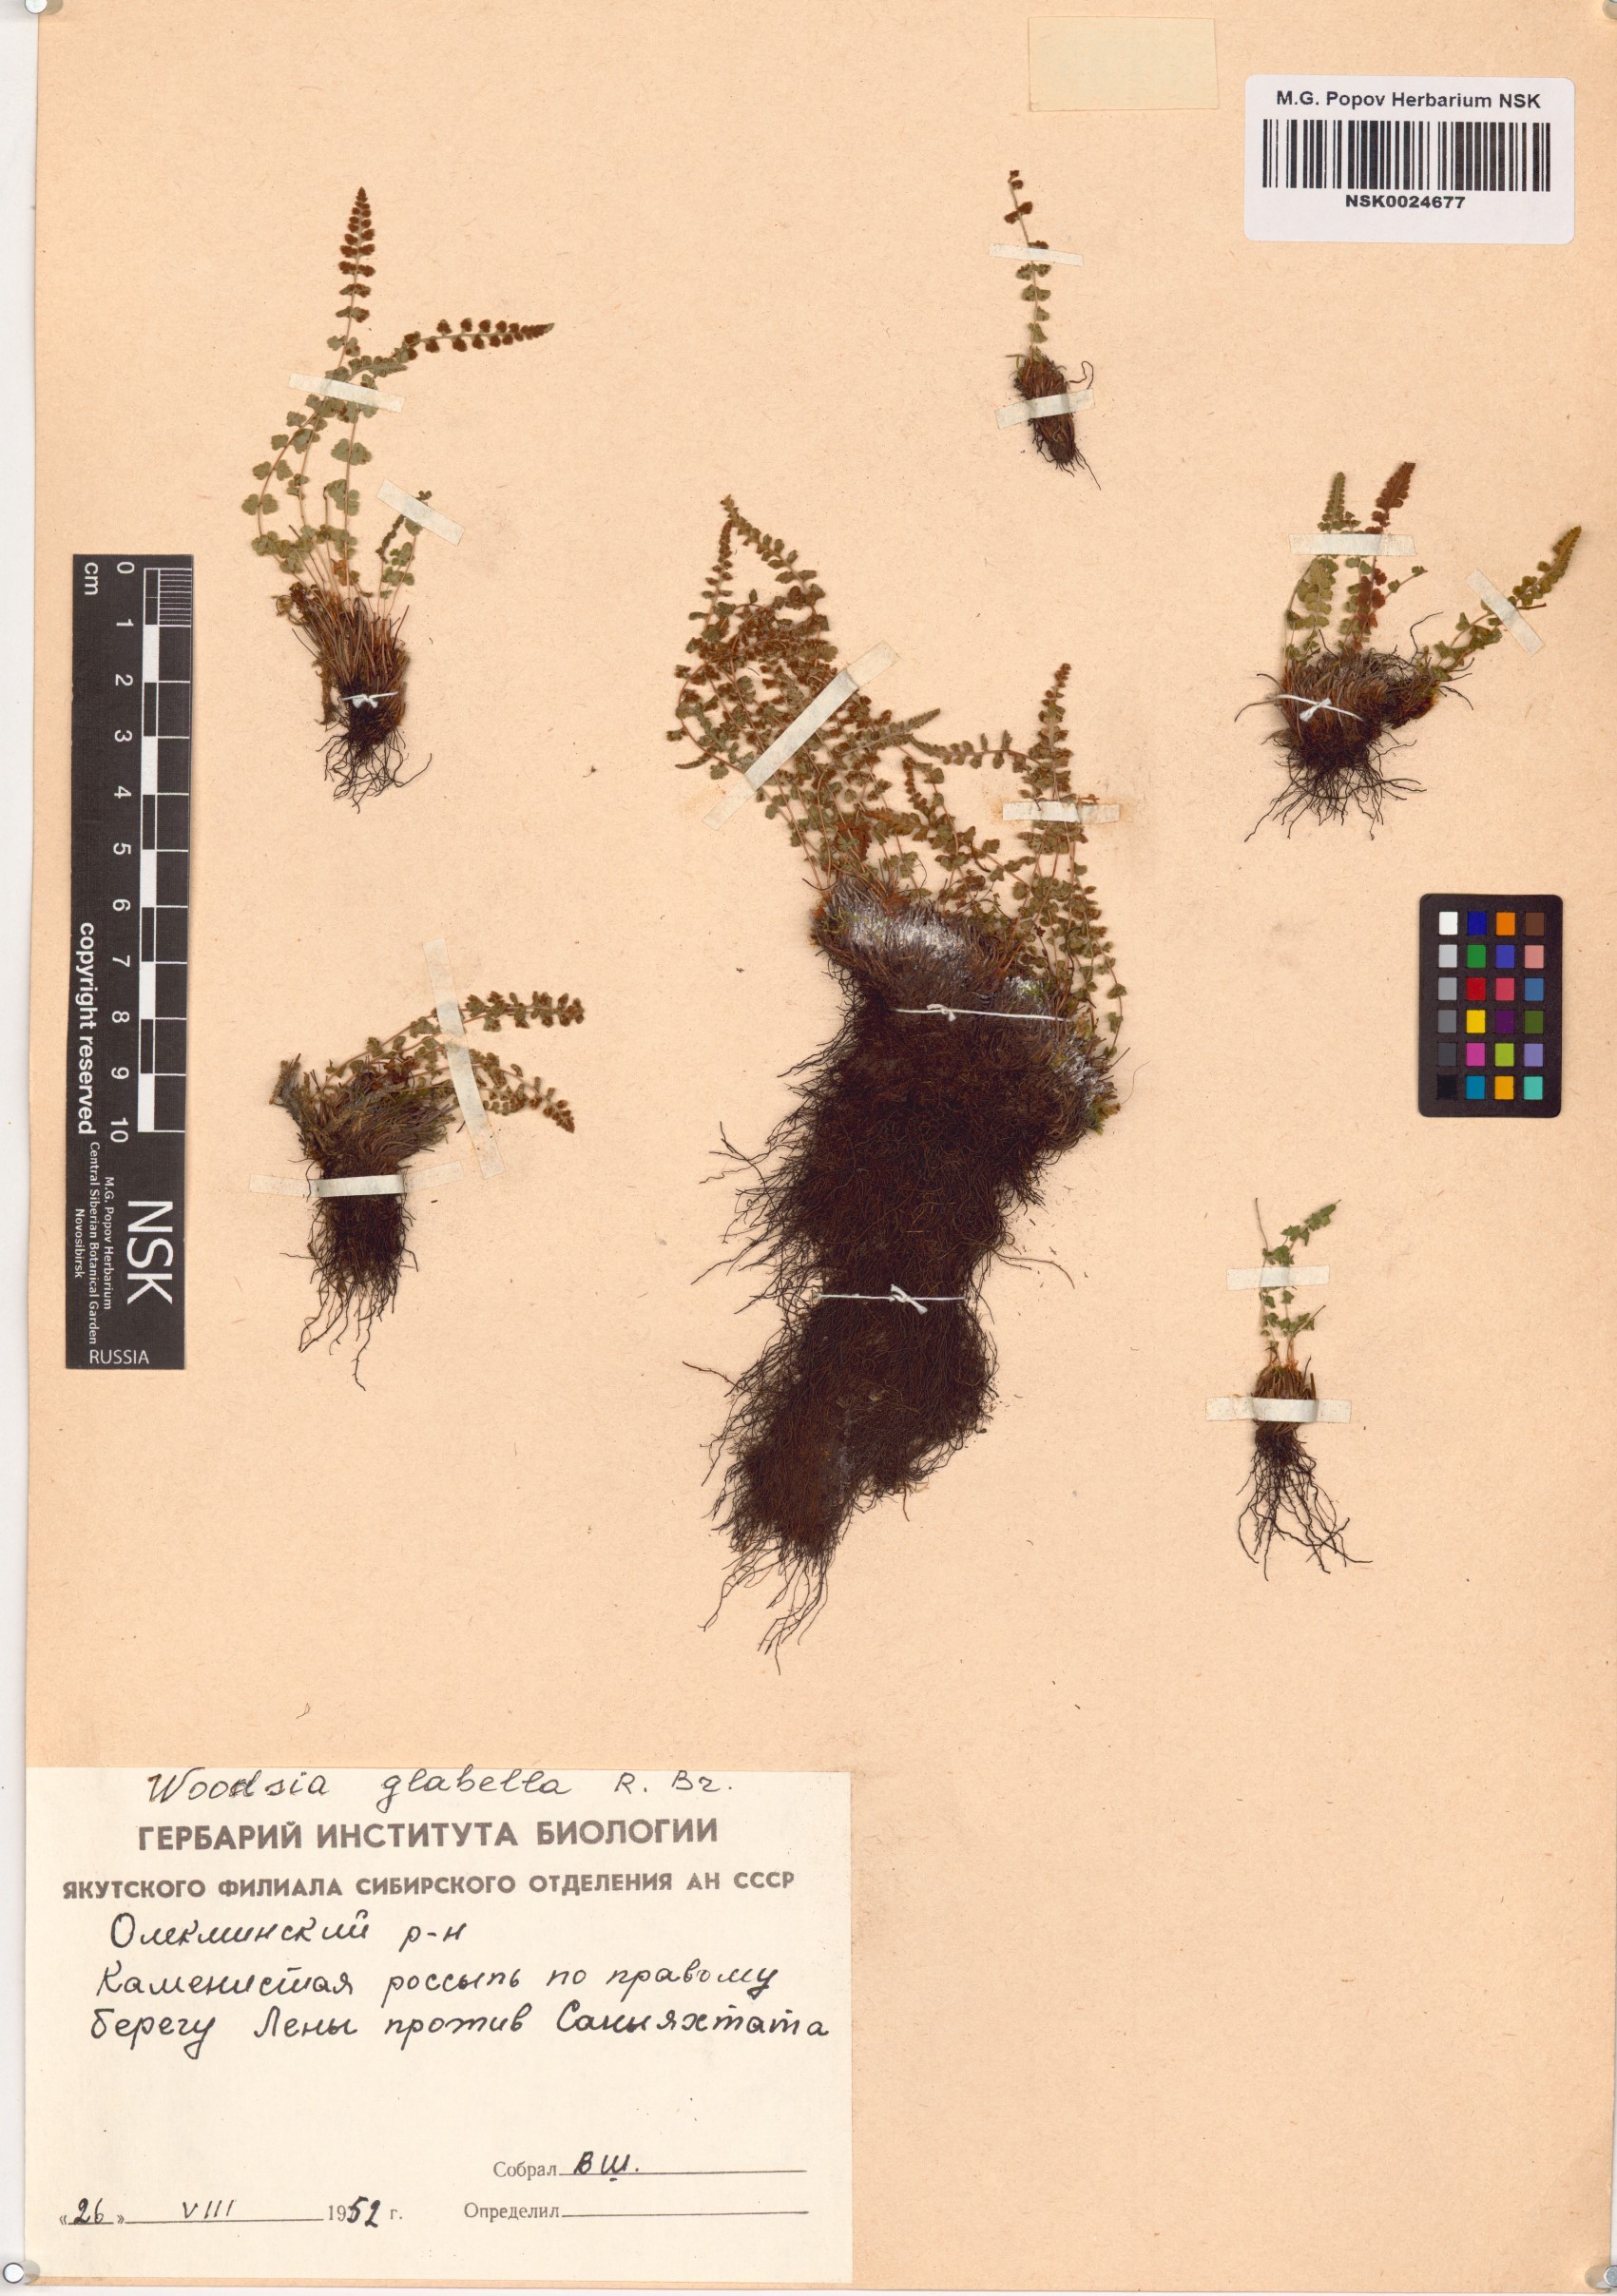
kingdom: Plantae
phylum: Tracheophyta
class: Polypodiopsida
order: Polypodiales
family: Woodsiaceae
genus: Woodsia
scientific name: Woodsia glabella
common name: Smooth woodsia
